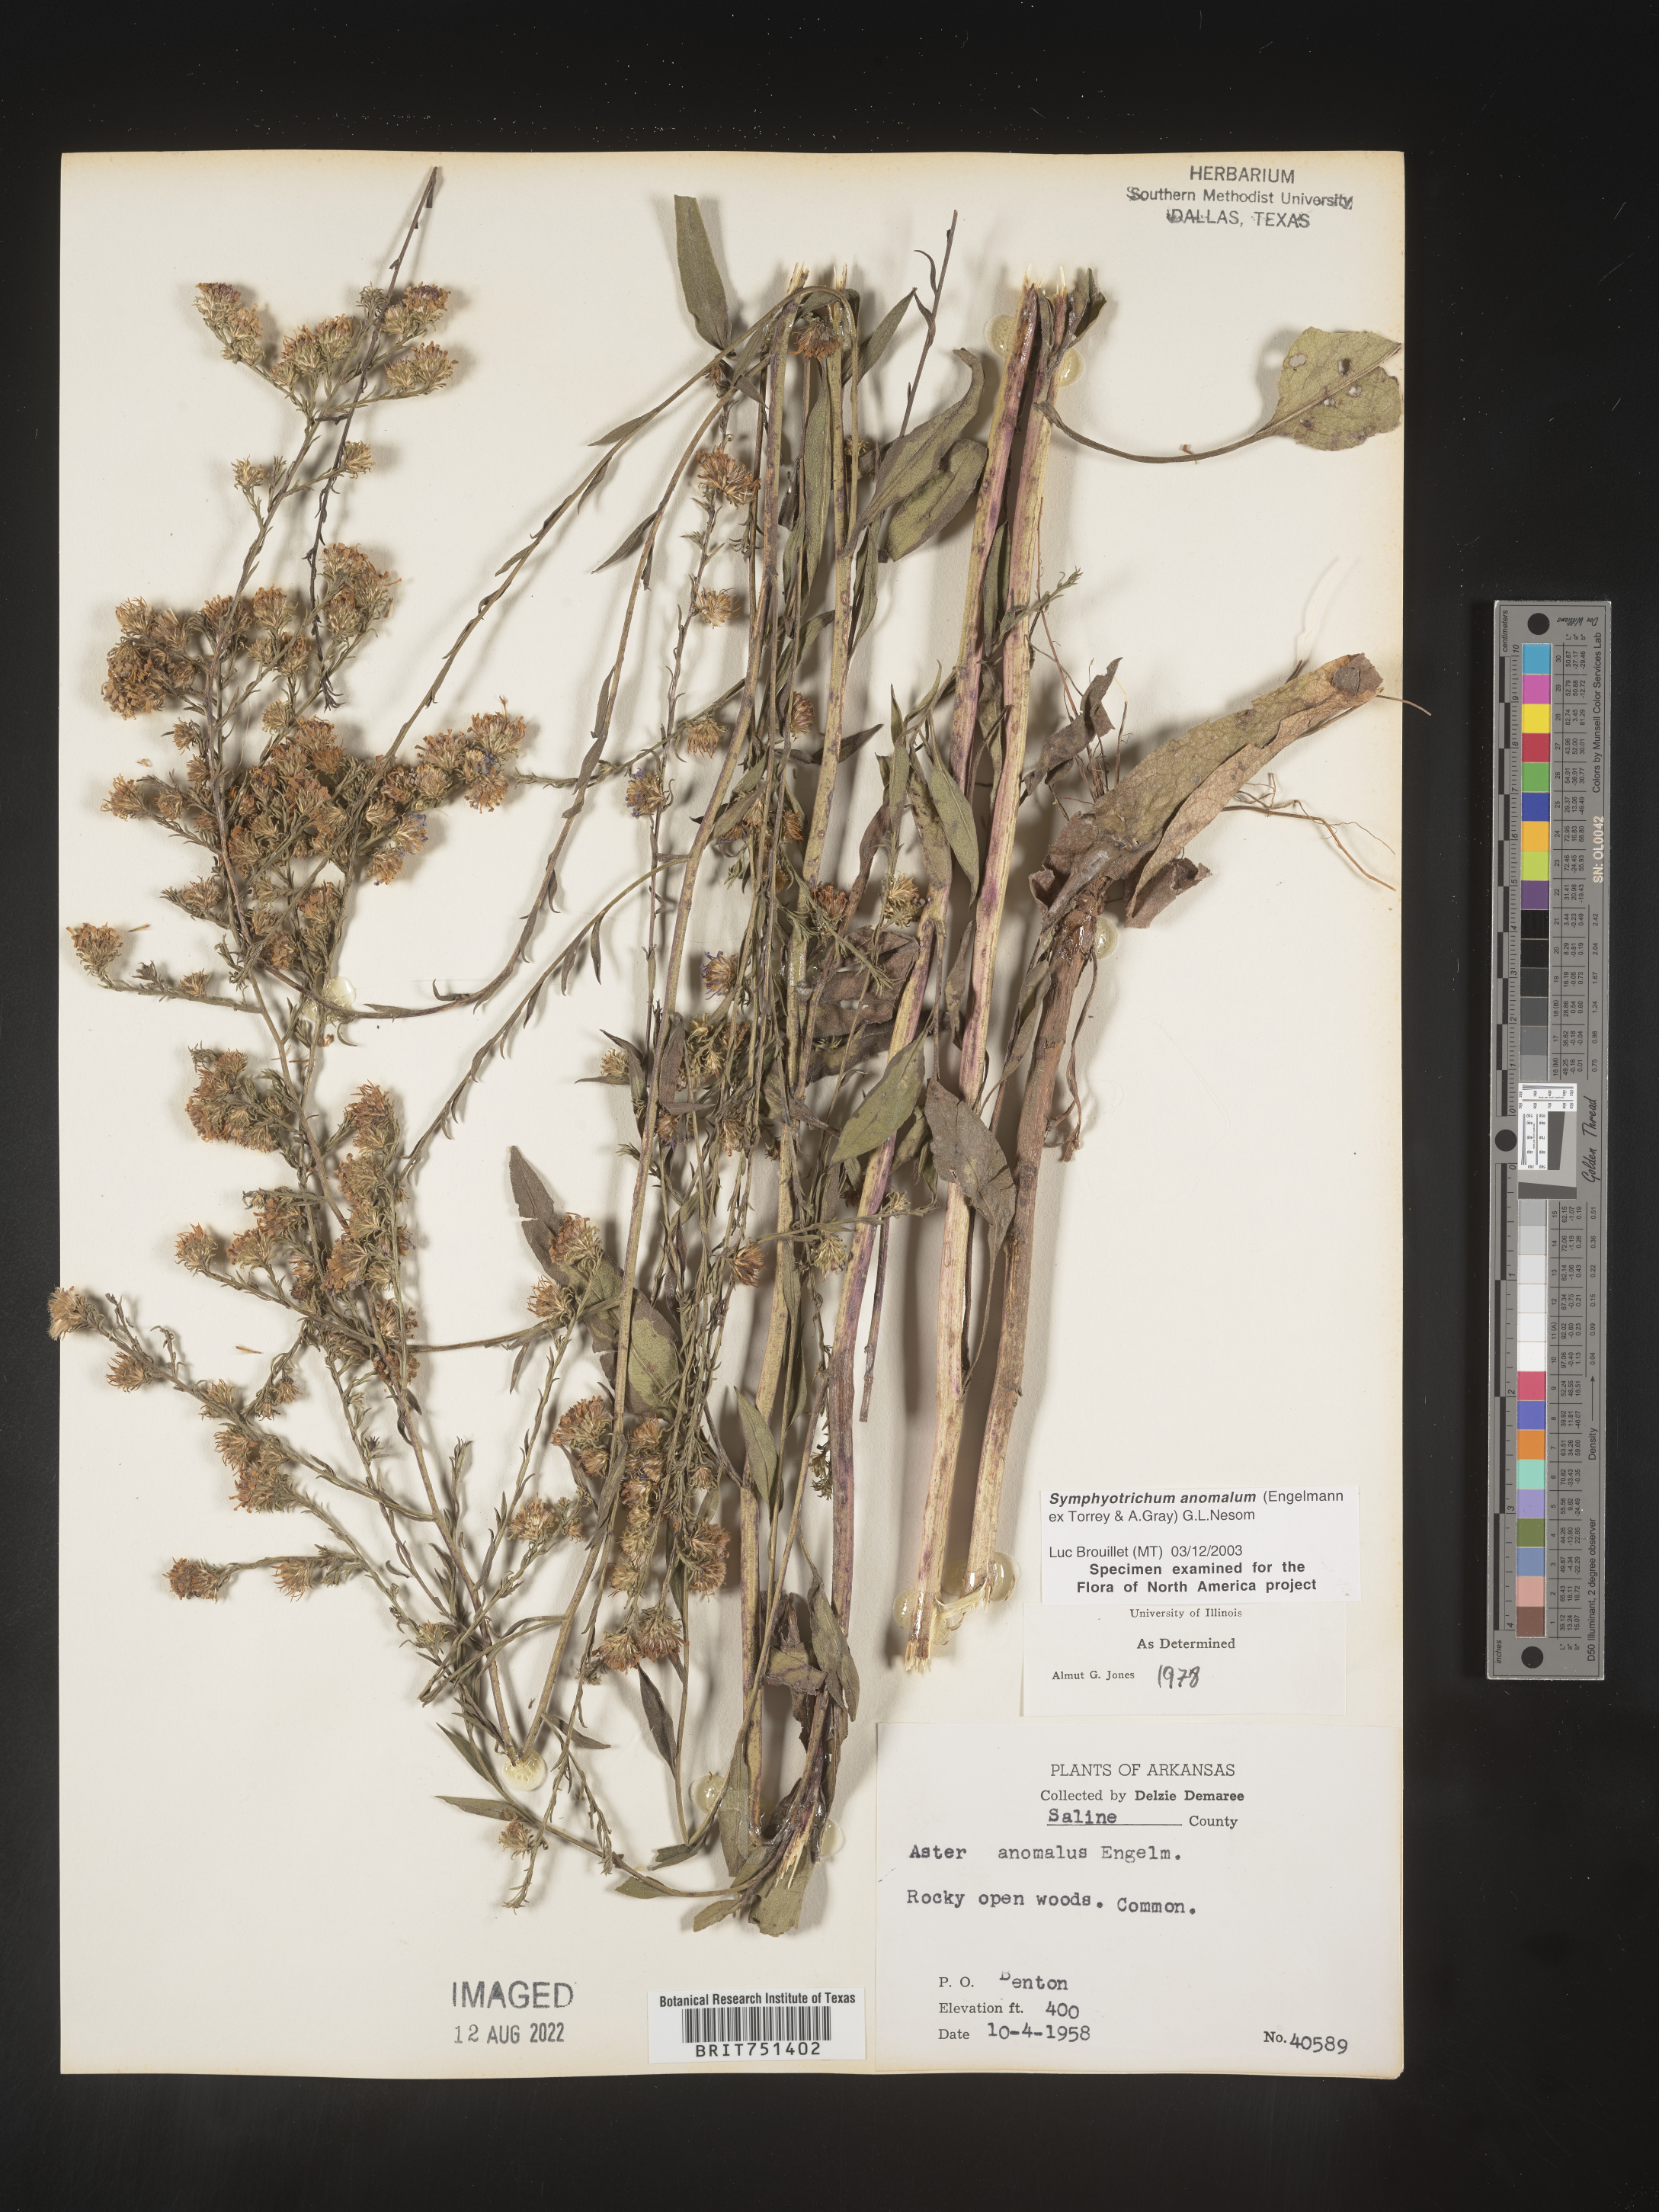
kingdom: Plantae
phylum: Tracheophyta
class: Magnoliopsida
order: Asterales
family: Asteraceae
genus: Symphyotrichum
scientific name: Symphyotrichum anomalum
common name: Many-ray aster
